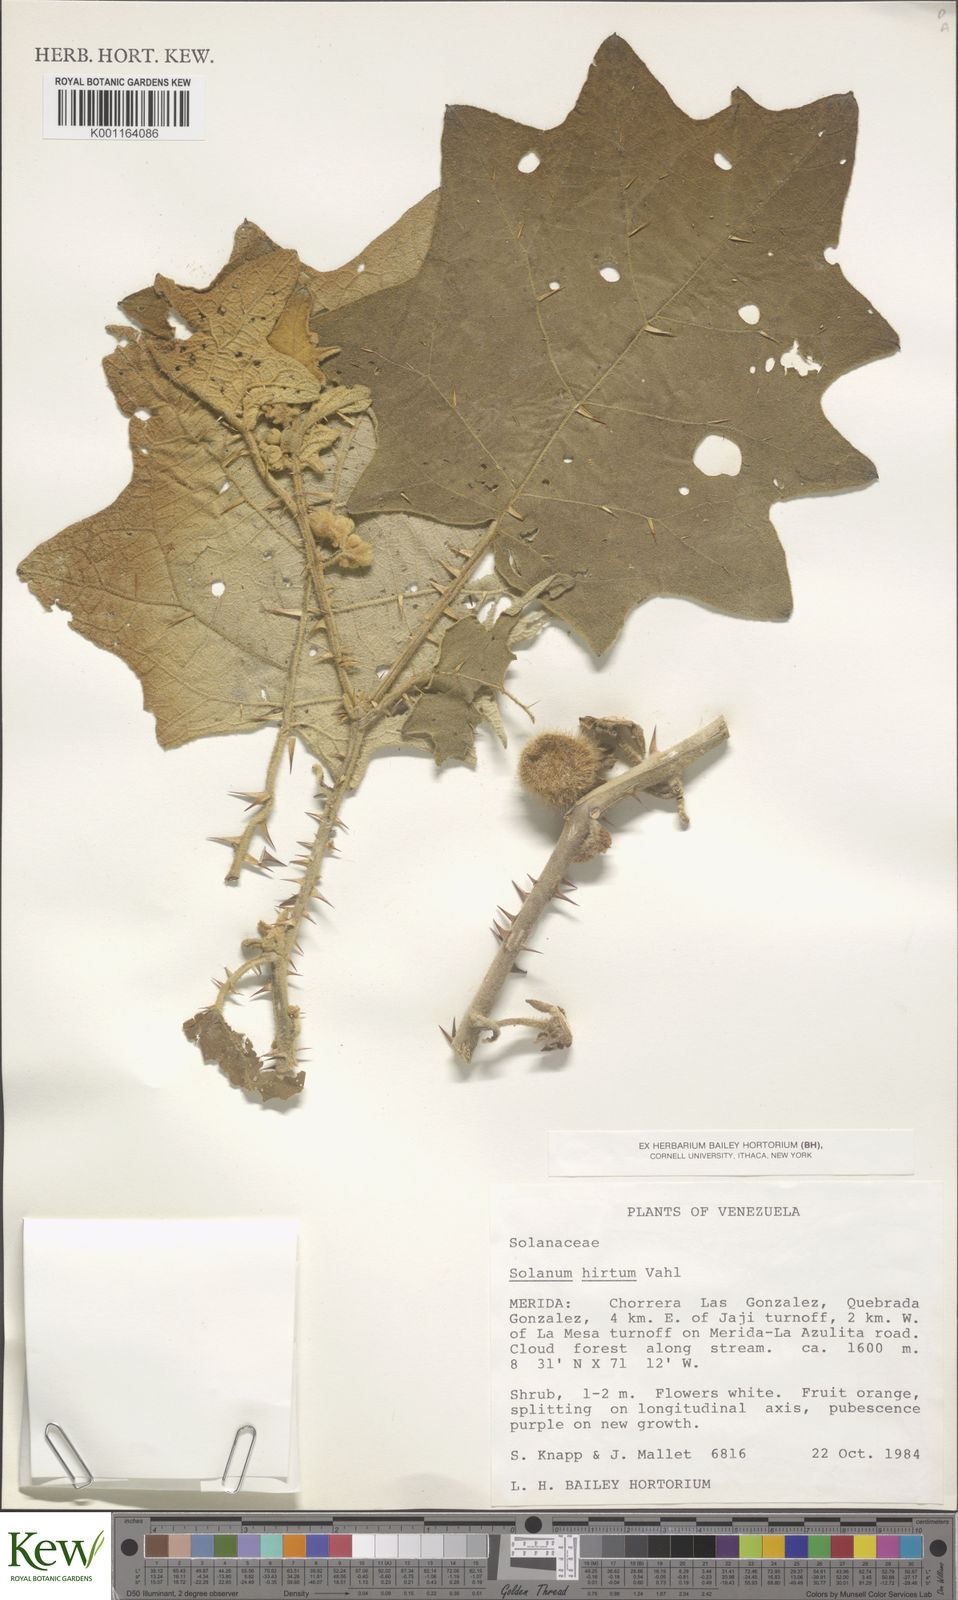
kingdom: Plantae
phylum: Tracheophyta
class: Magnoliopsida
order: Solanales
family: Solanaceae
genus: Solanum
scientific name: Solanum hirtum
